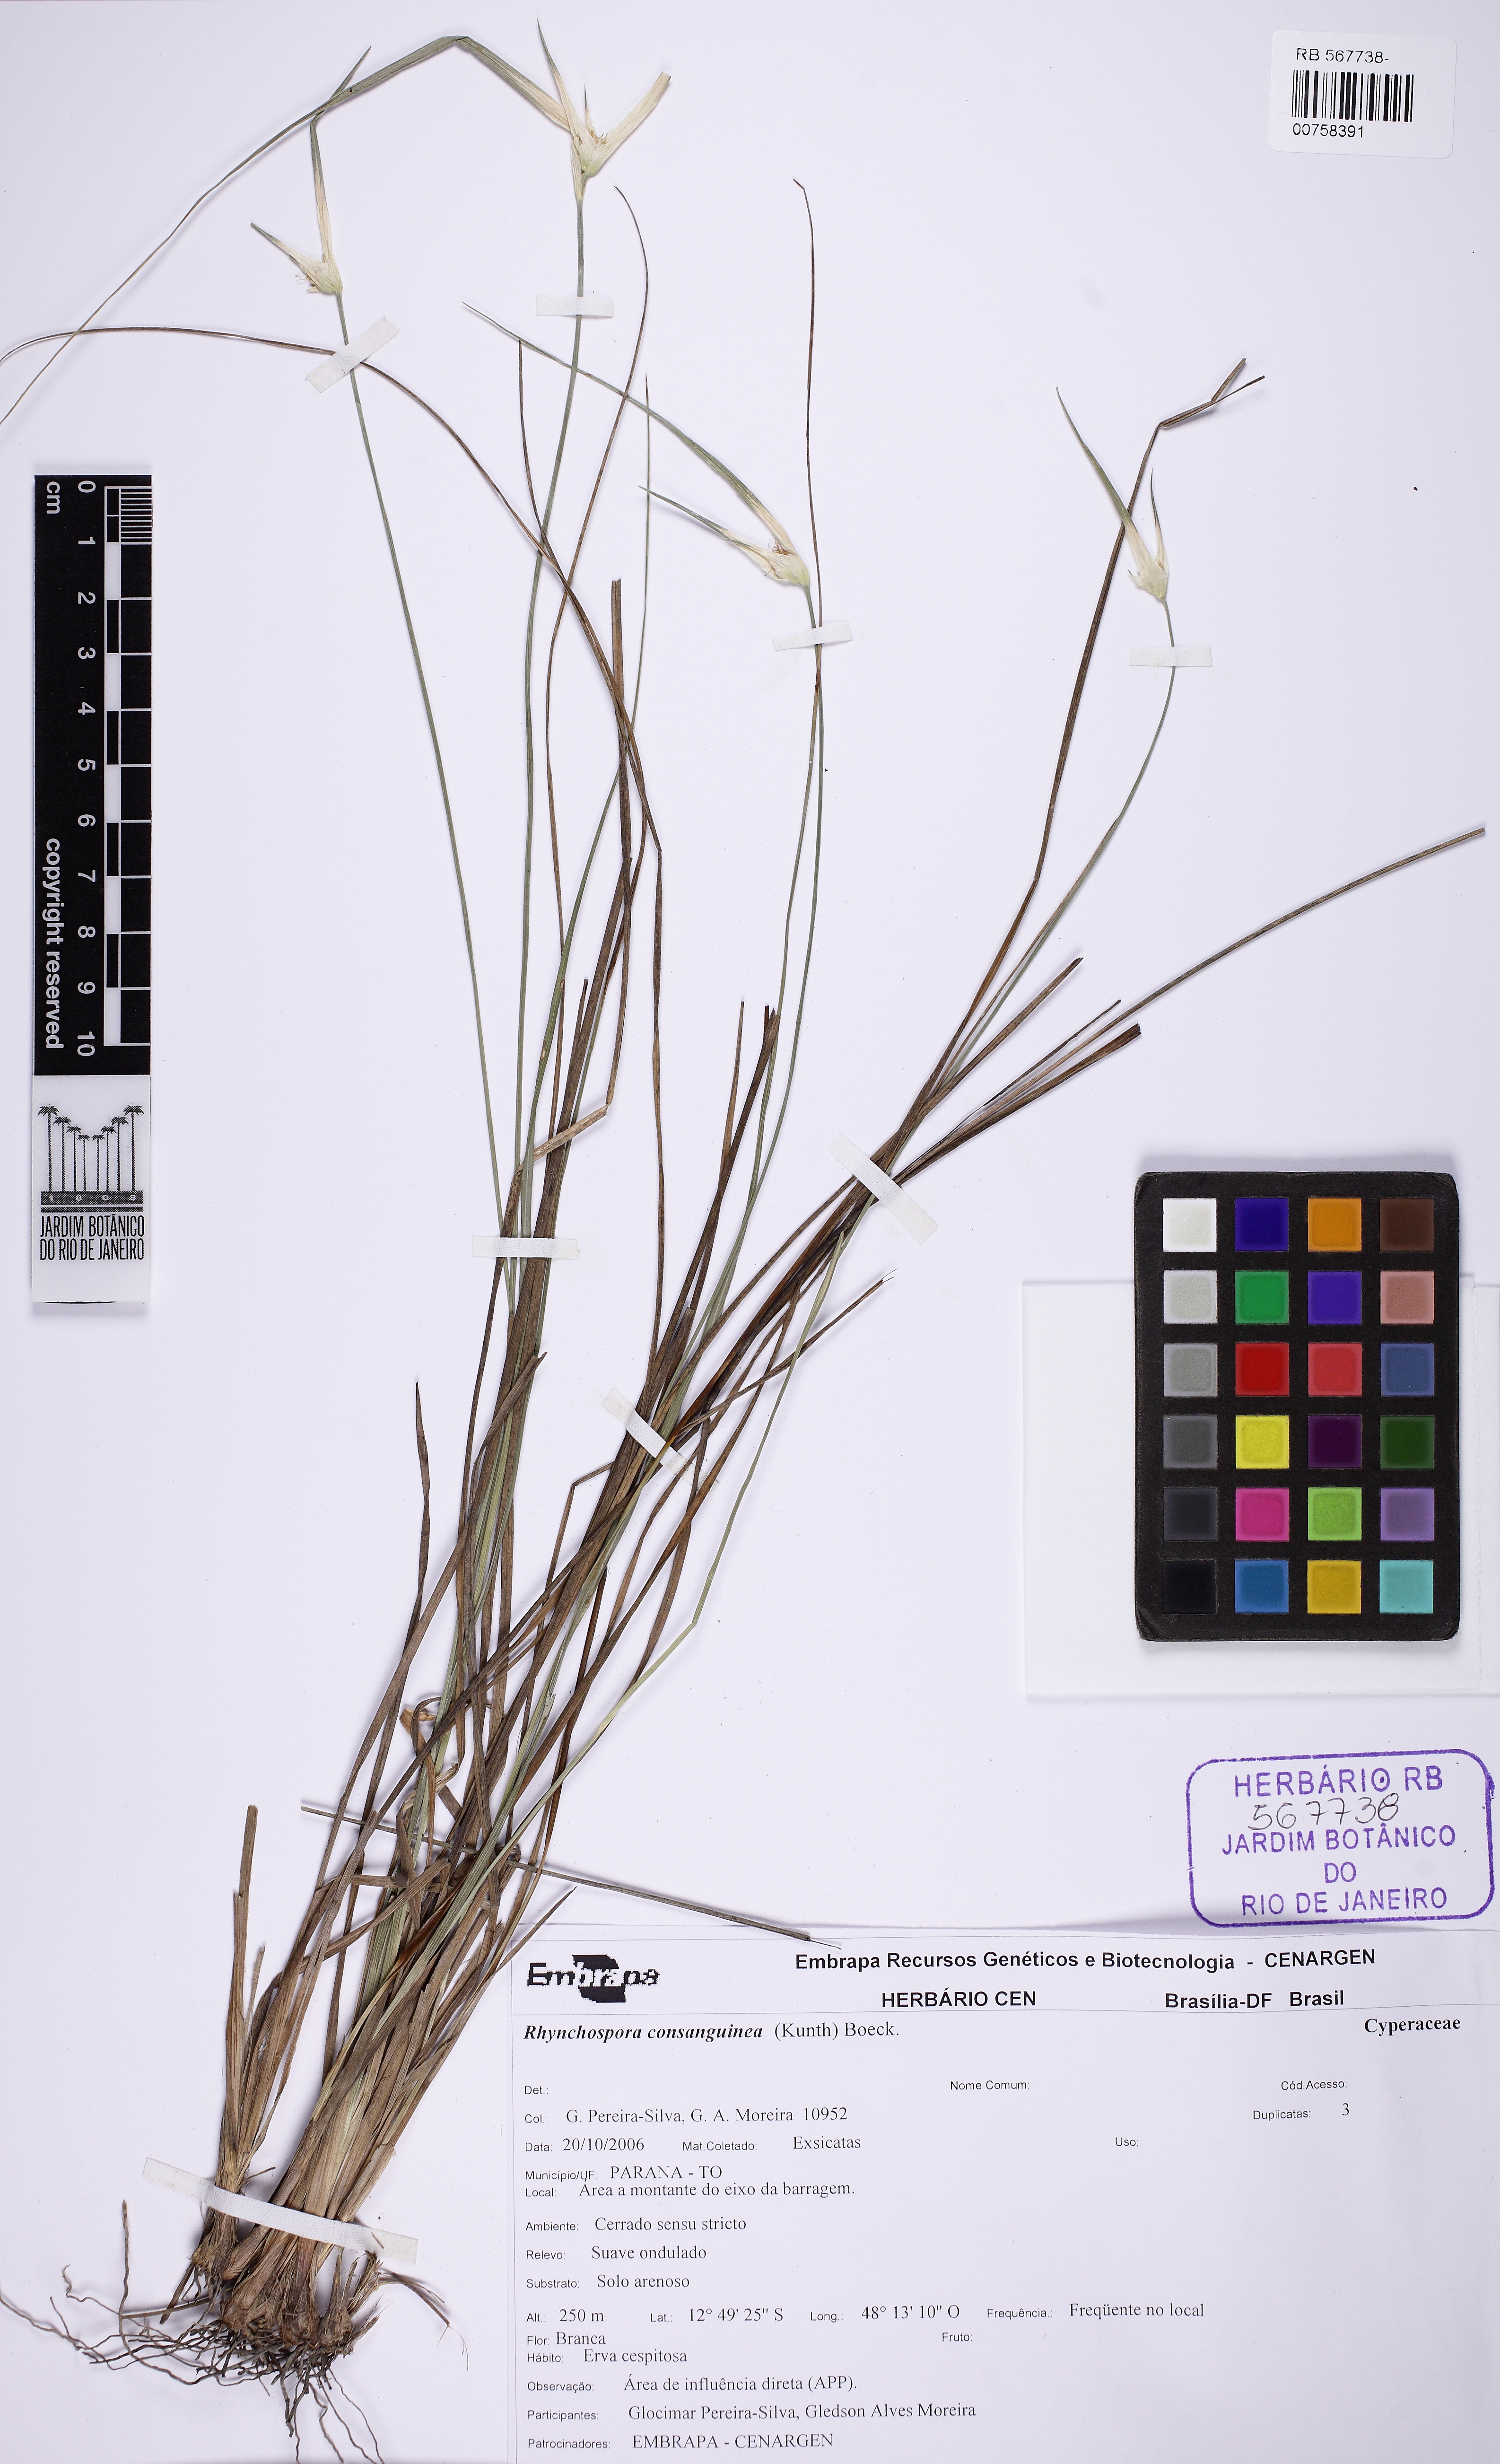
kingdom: Plantae
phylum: Tracheophyta
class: Liliopsida
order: Poales
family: Cyperaceae
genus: Rhynchospora
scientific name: Rhynchospora consanguinea
